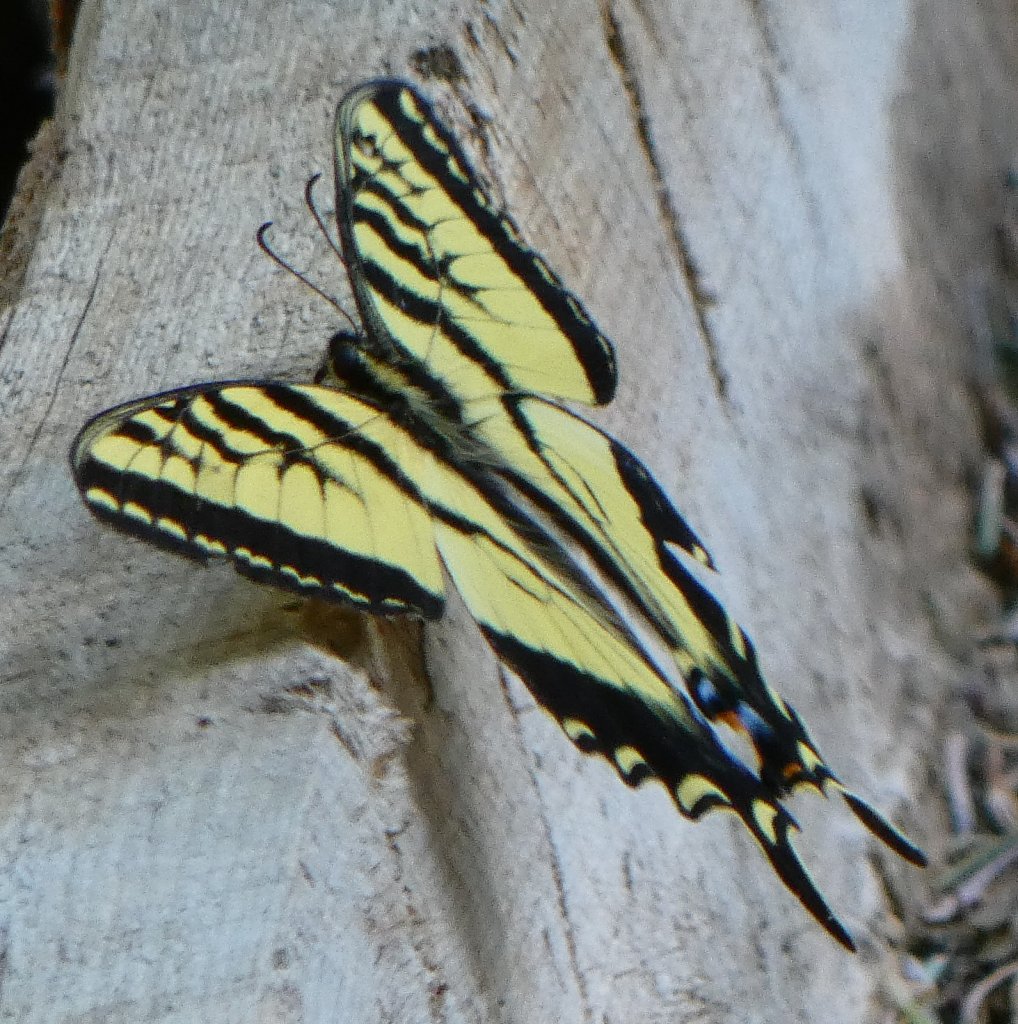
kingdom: Animalia
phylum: Arthropoda
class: Insecta
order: Lepidoptera
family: Papilionidae
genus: Pterourus
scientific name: Pterourus rutulus
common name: Western Tiger Swallowtail
